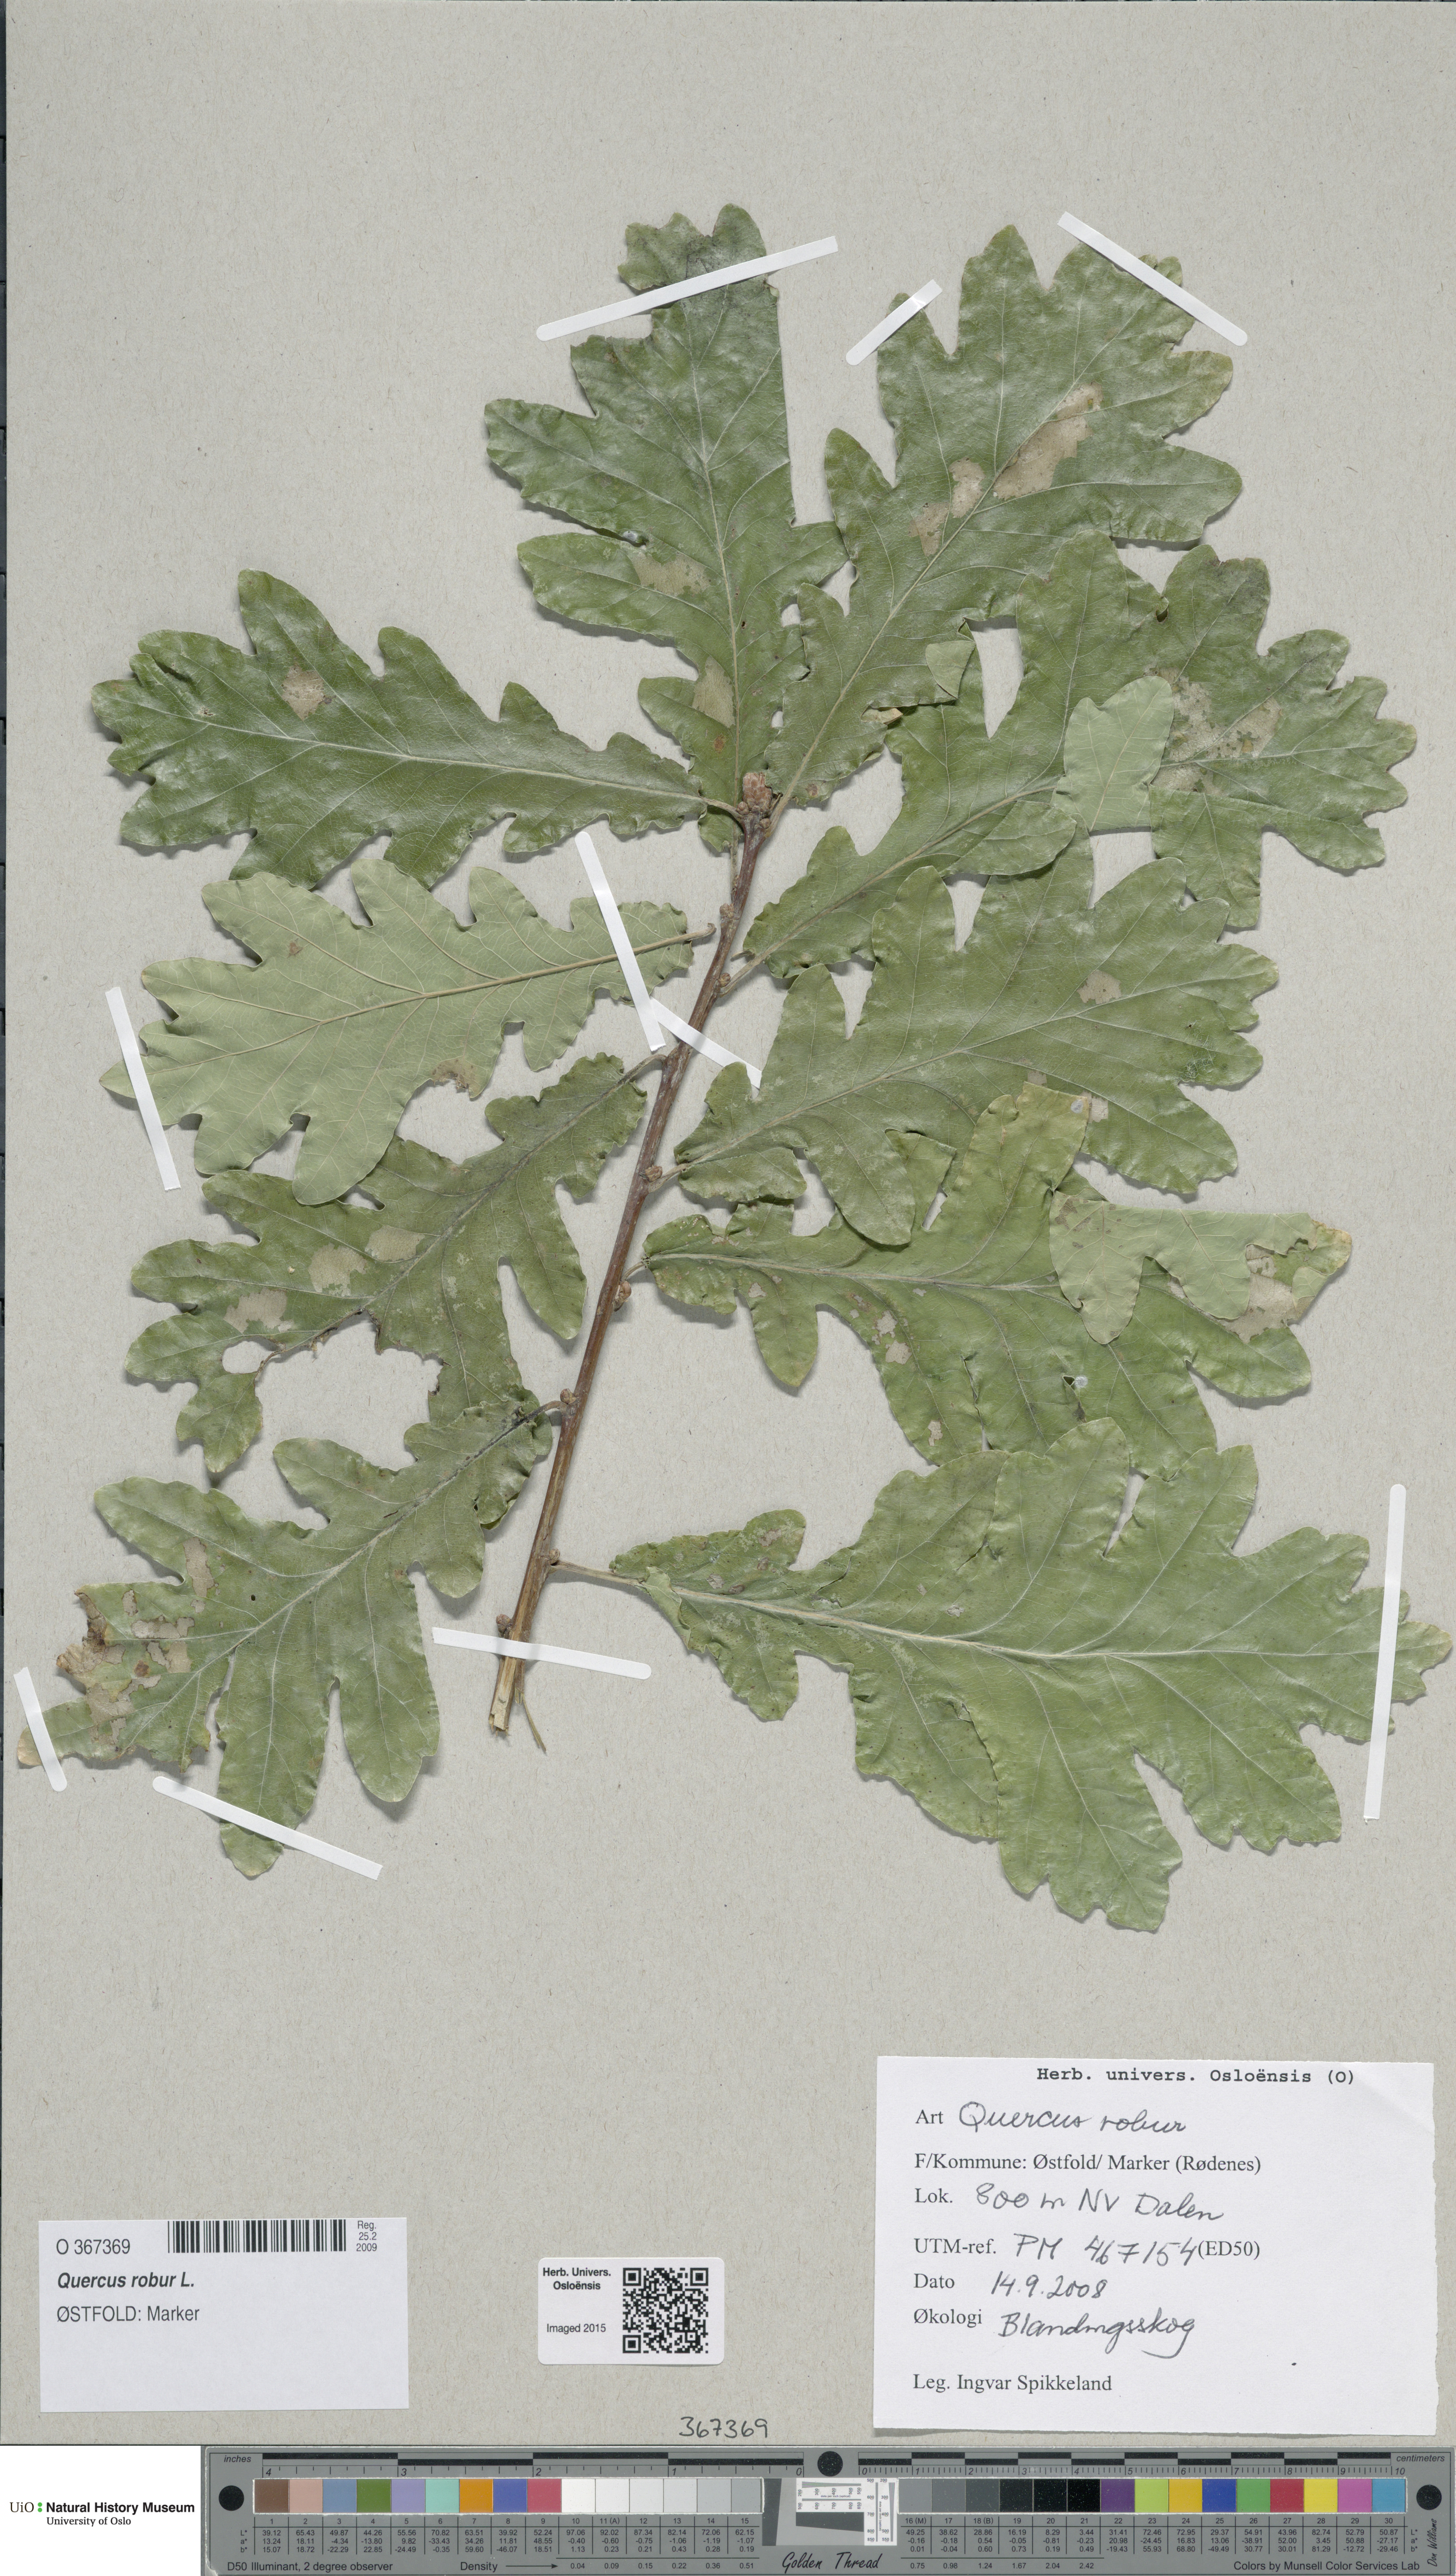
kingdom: Plantae
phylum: Tracheophyta
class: Magnoliopsida
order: Fagales
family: Fagaceae
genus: Quercus
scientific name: Quercus robur
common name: Pedunculate oak
